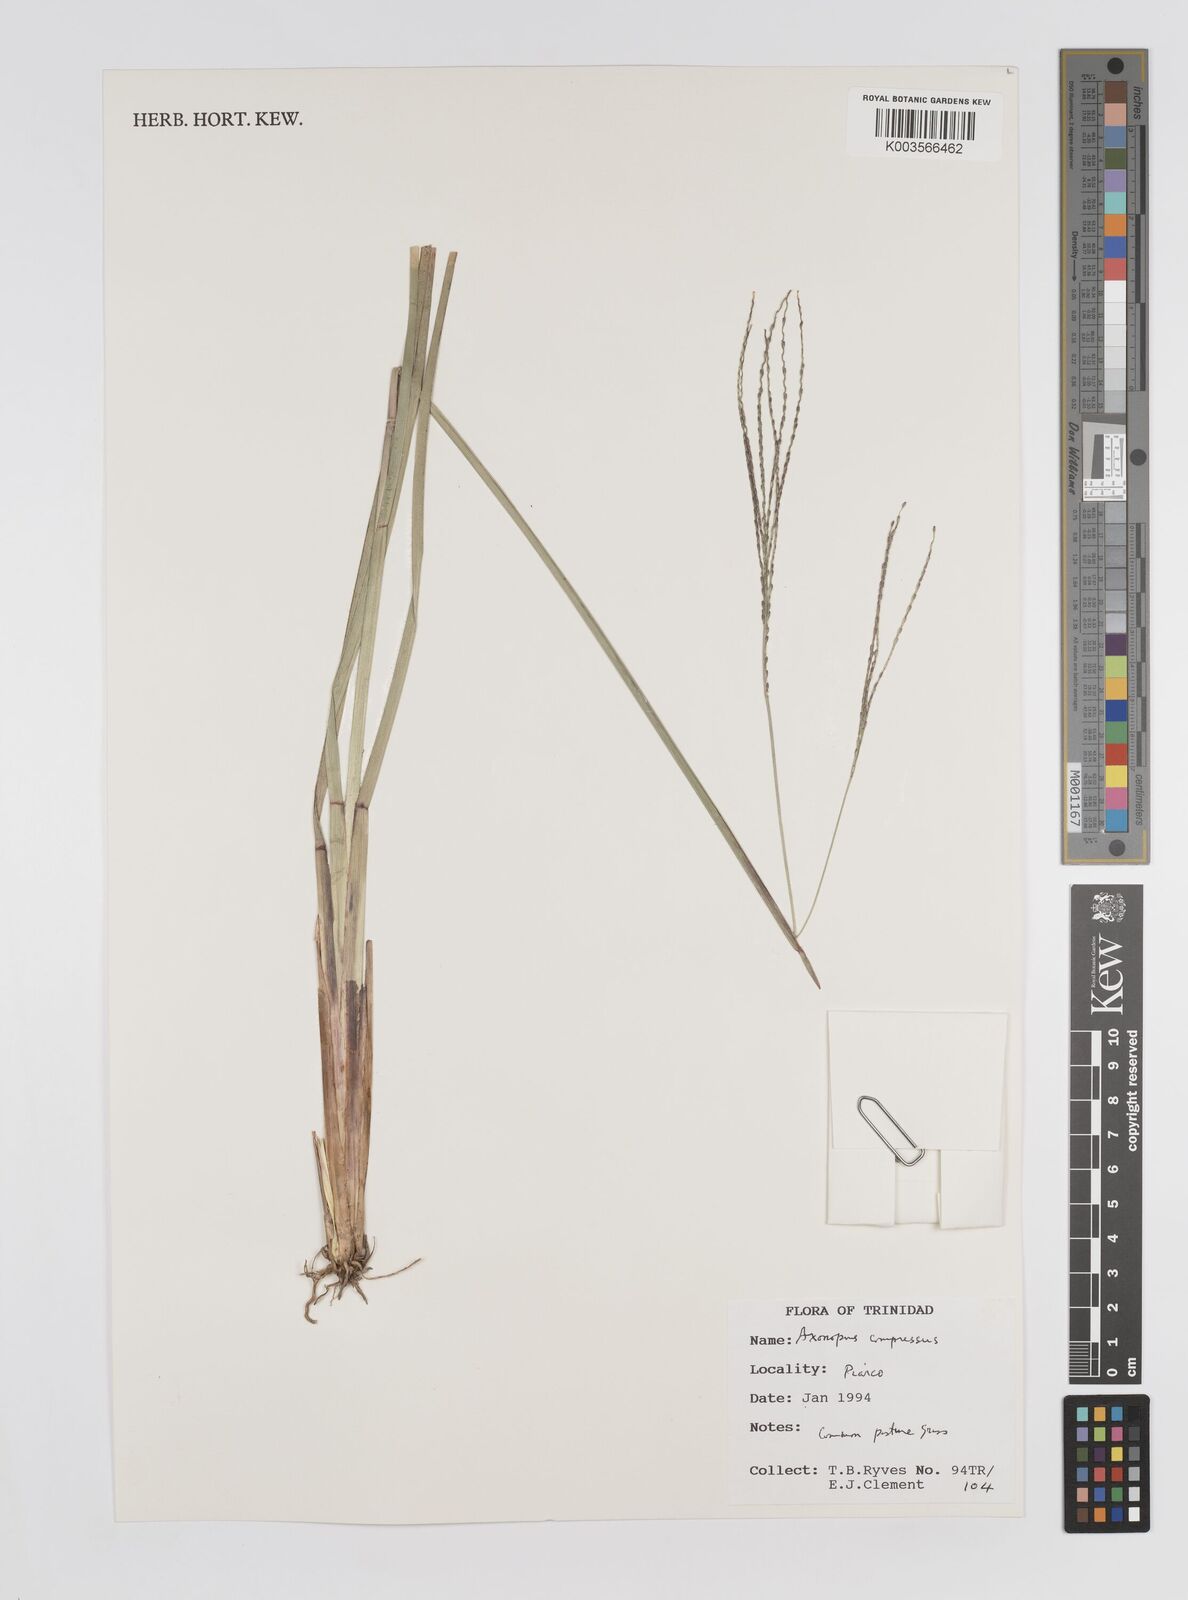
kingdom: Plantae
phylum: Tracheophyta
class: Liliopsida
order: Poales
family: Poaceae
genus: Axonopus
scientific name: Axonopus compressus
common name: American carpet grass
